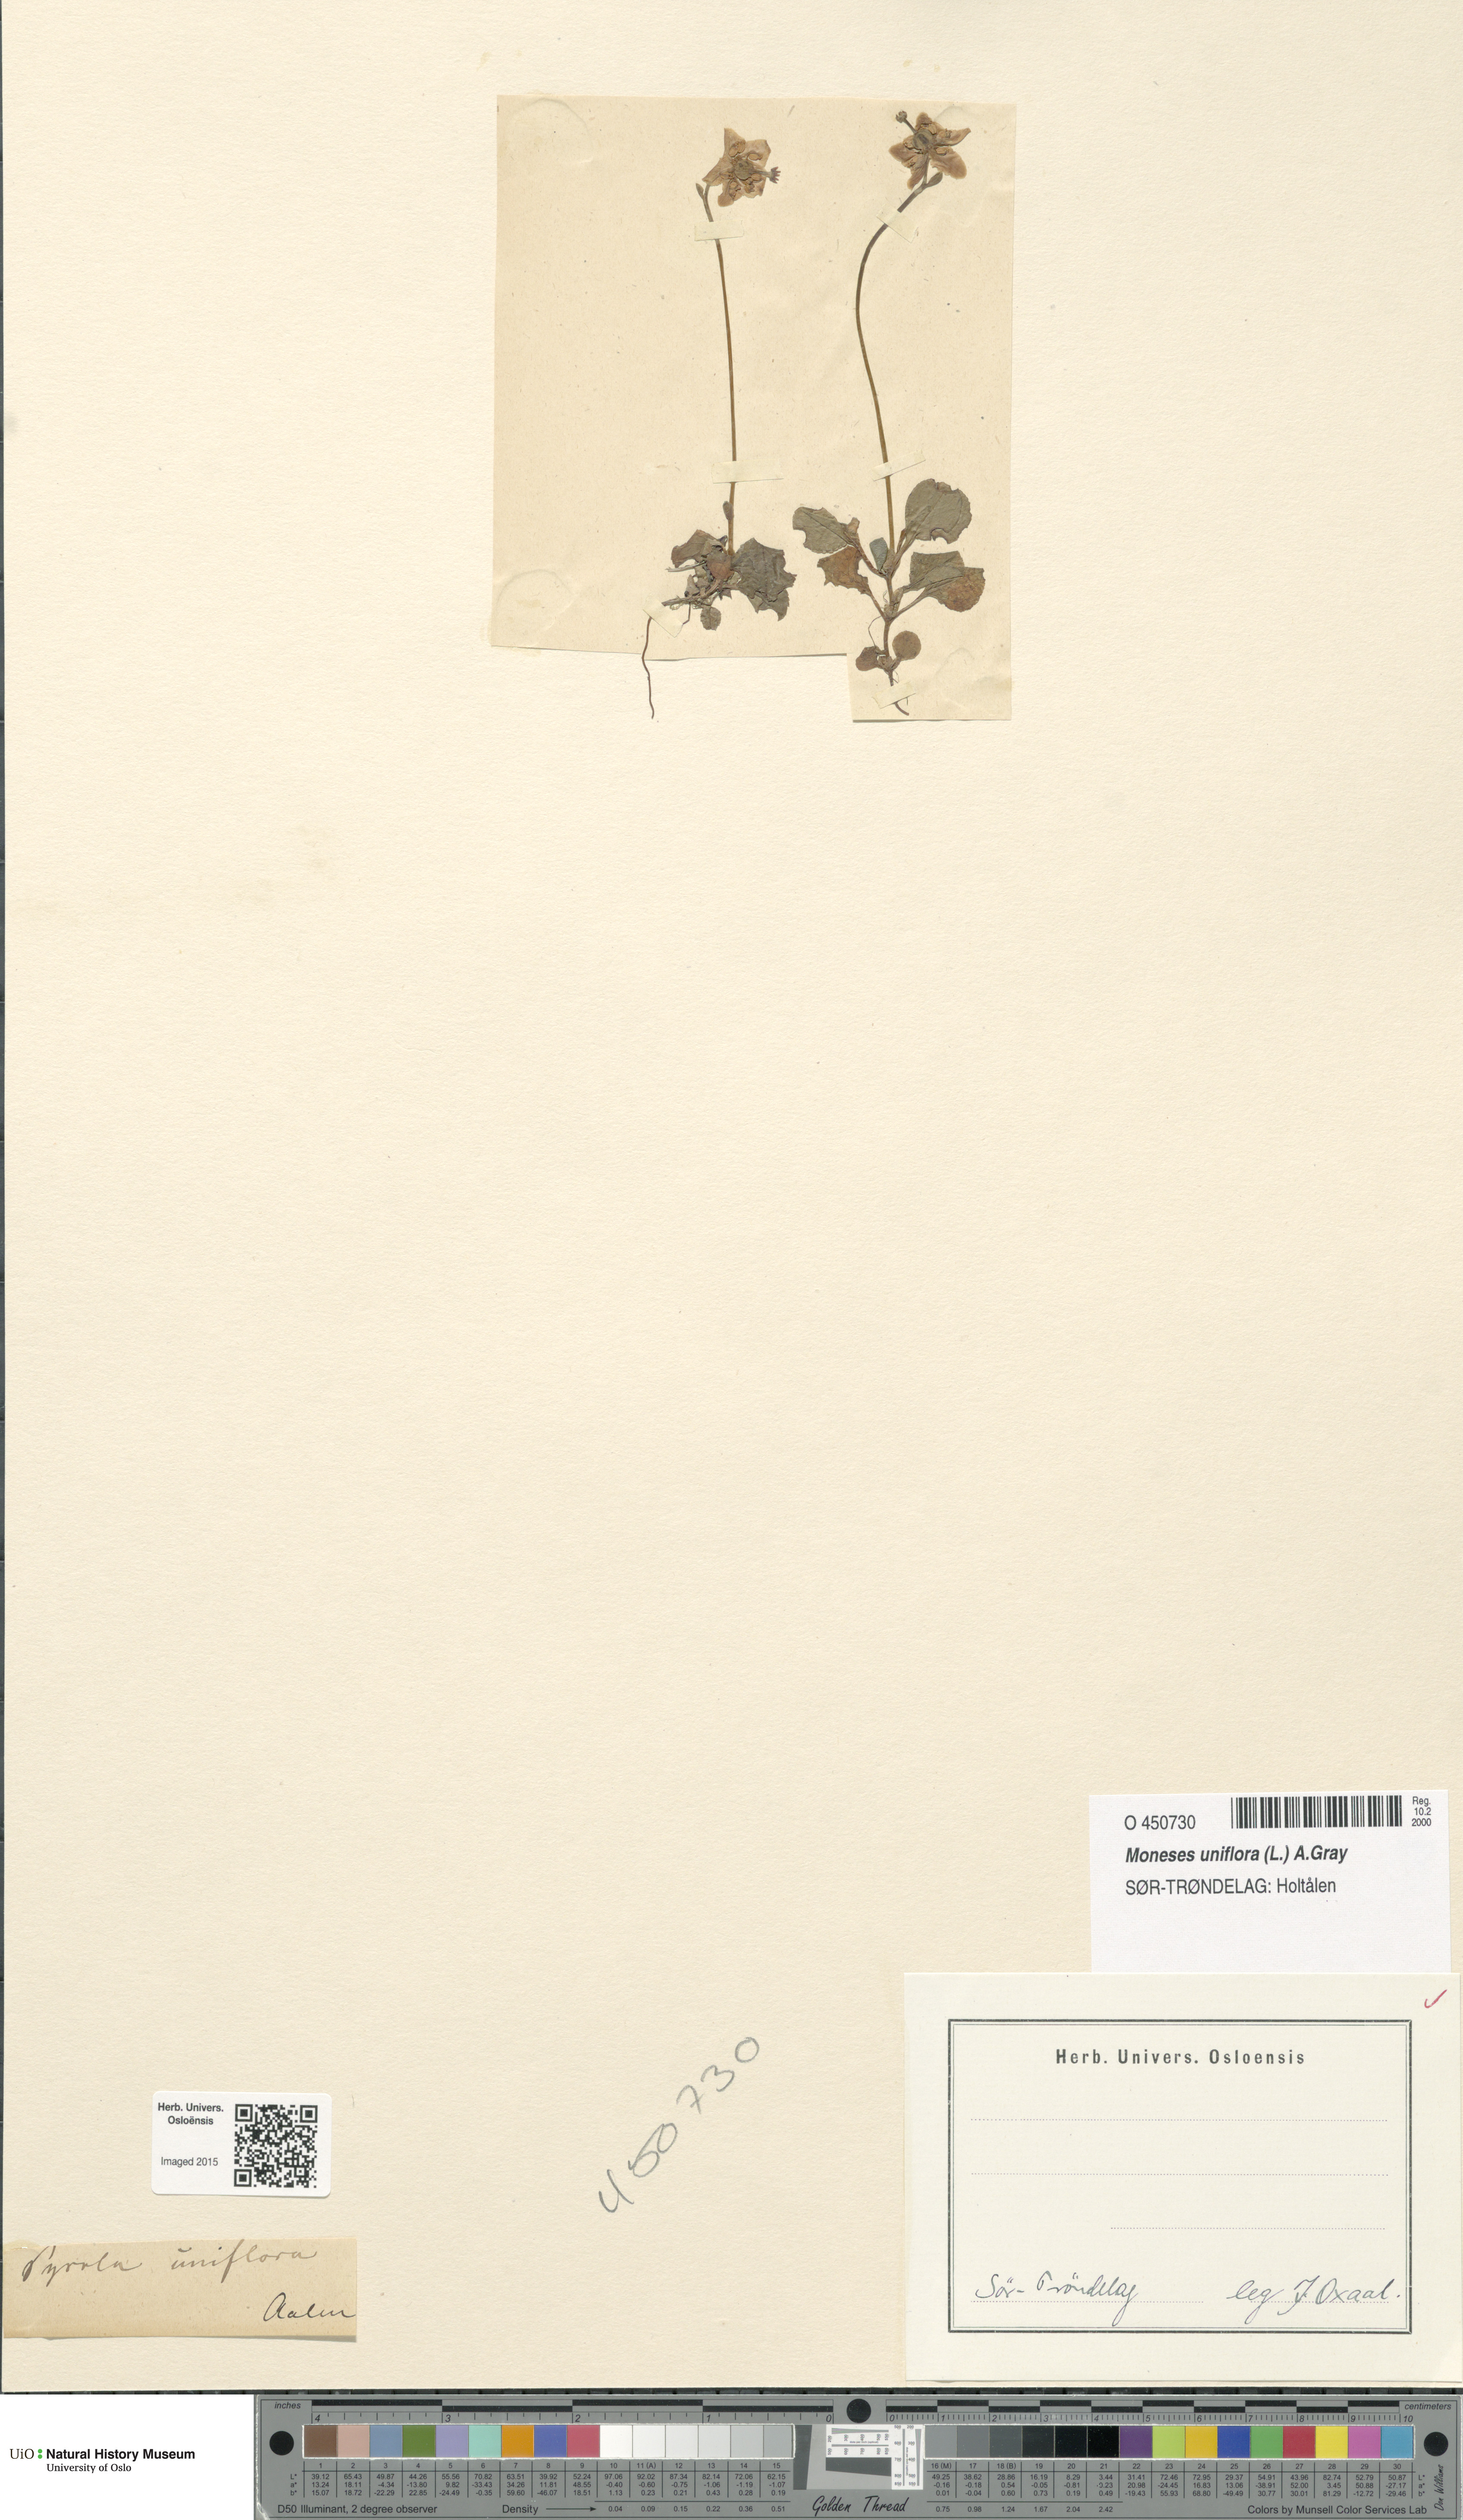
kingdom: Plantae
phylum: Tracheophyta
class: Magnoliopsida
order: Ericales
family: Ericaceae
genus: Moneses
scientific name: Moneses uniflora
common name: One-flowered wintergreen
